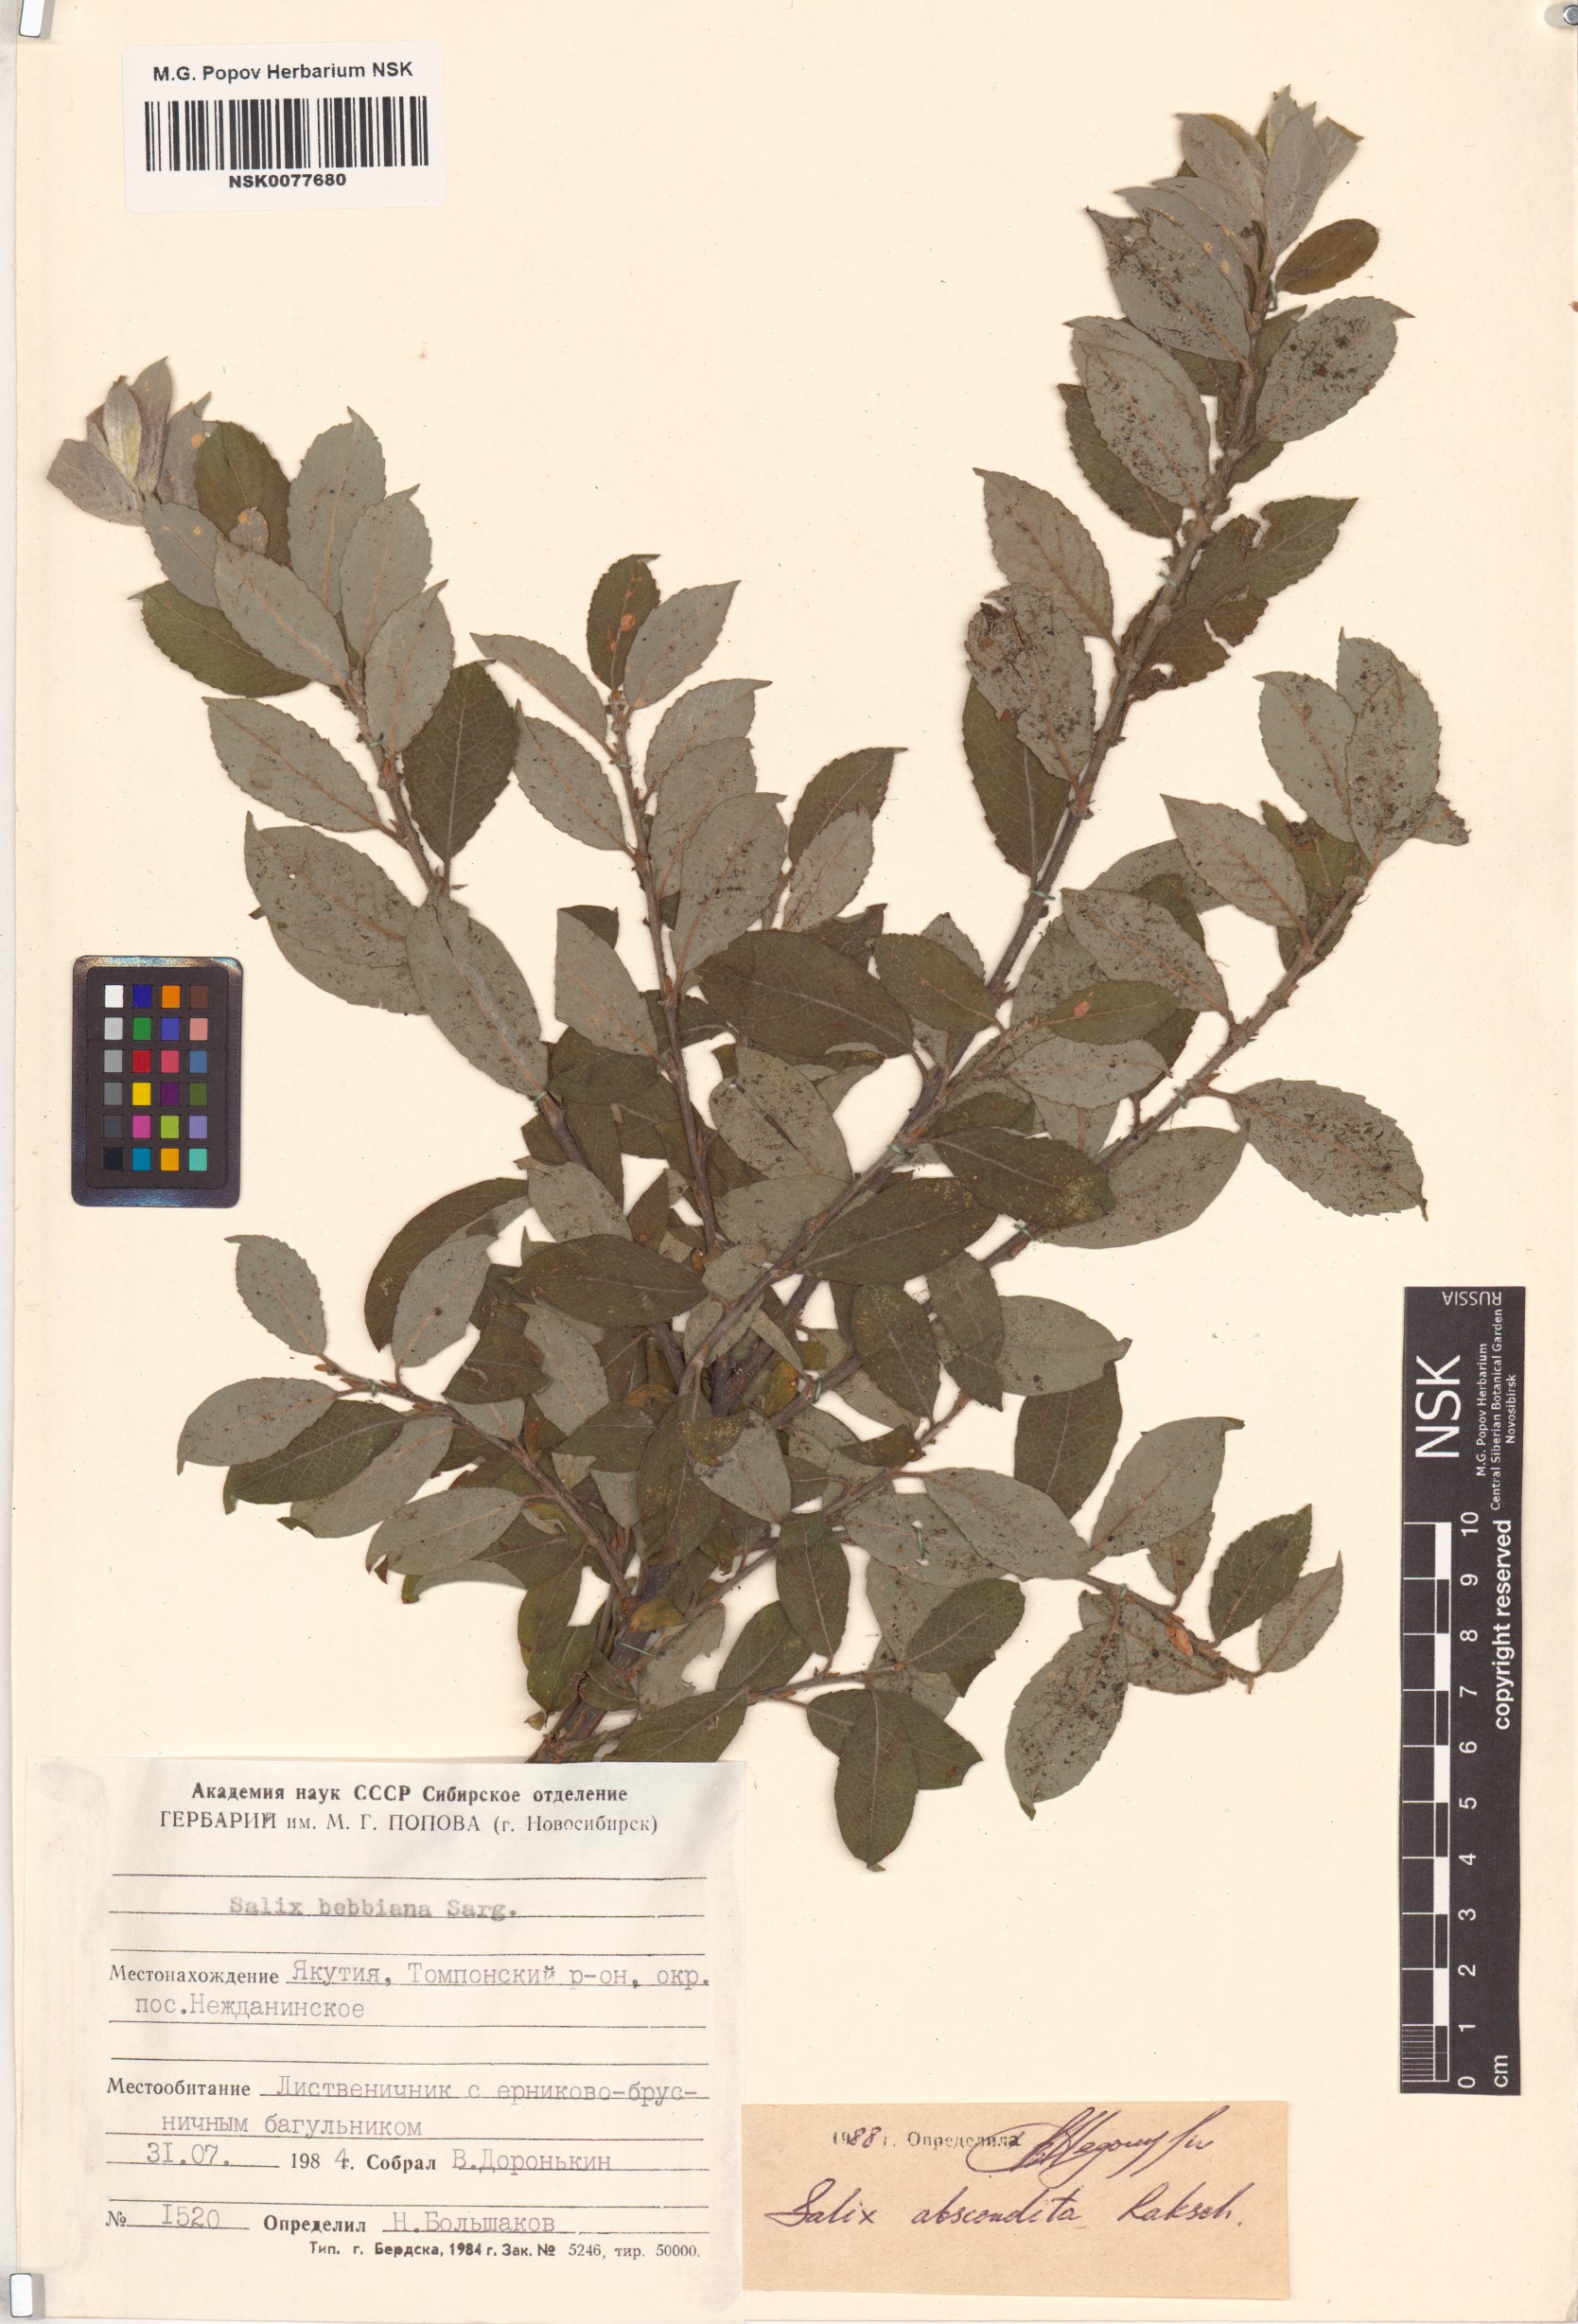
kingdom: Plantae
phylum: Tracheophyta
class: Magnoliopsida
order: Malpighiales
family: Salicaceae
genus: Salix
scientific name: Salix abscondita
